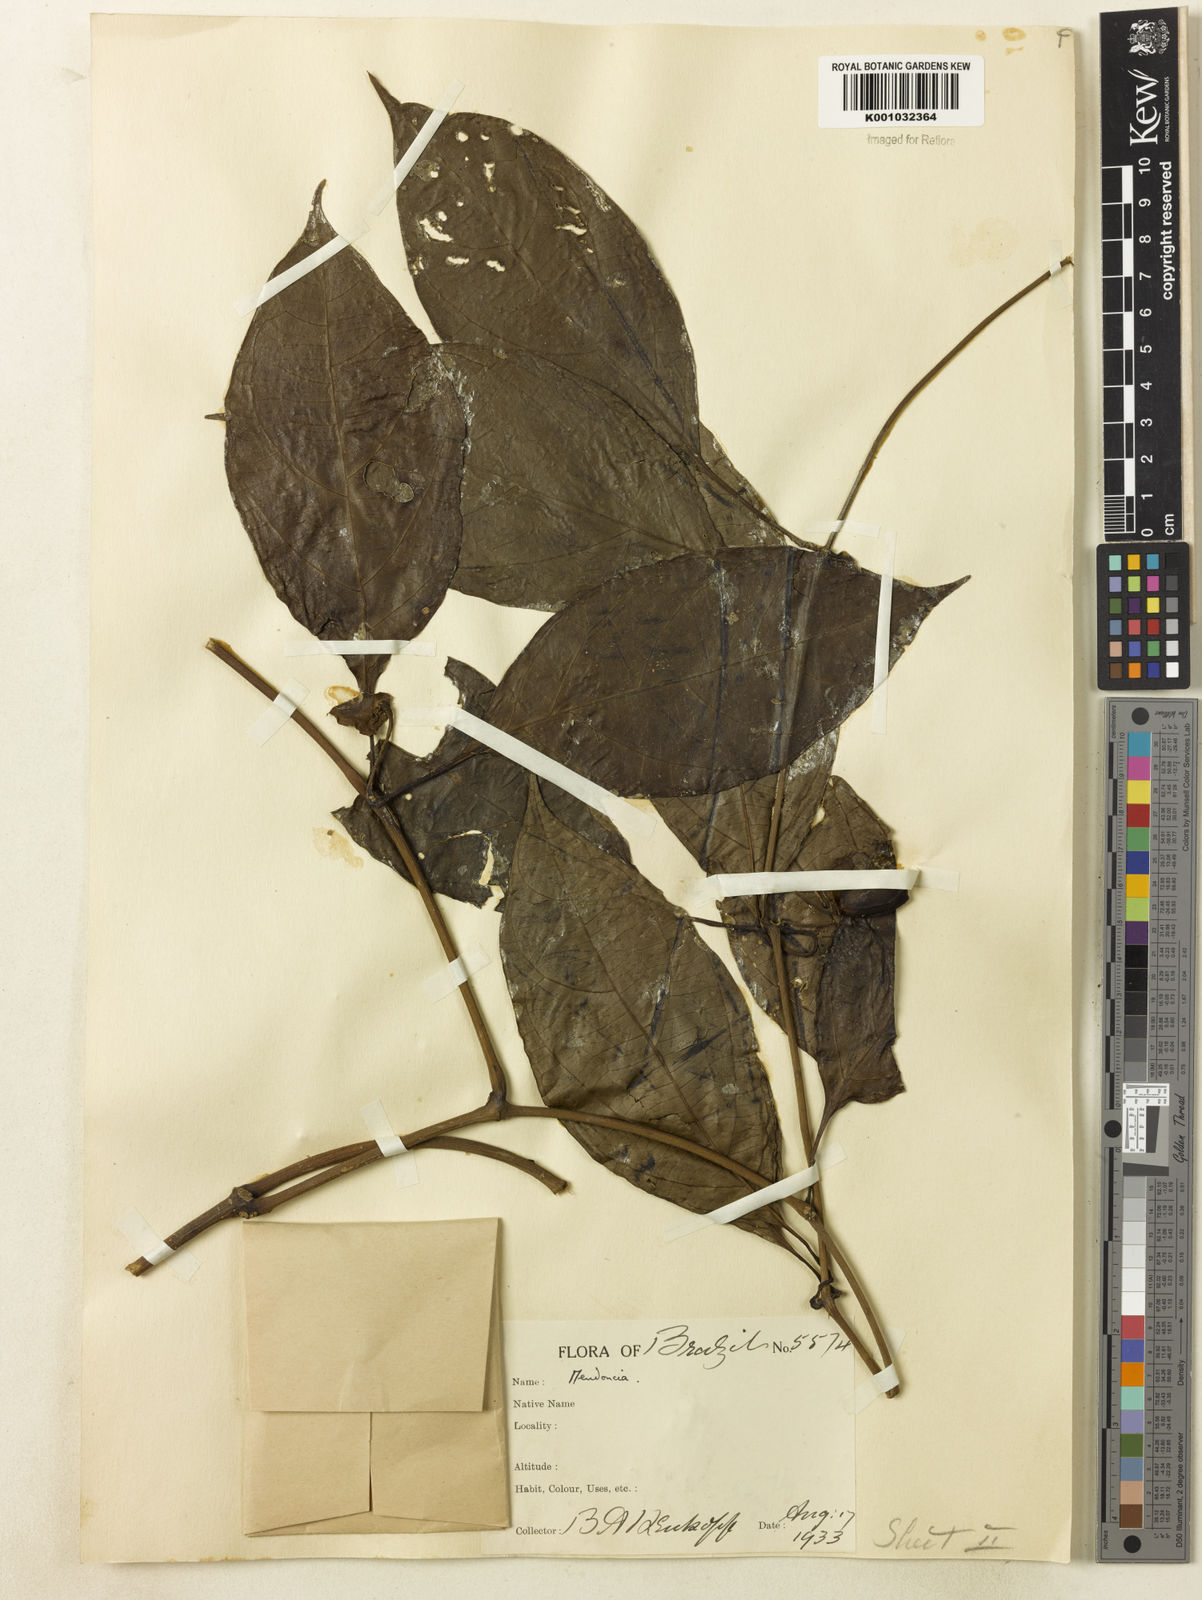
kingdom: Plantae
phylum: Tracheophyta
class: Magnoliopsida
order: Lamiales
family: Acanthaceae
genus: Mendoncia
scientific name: Mendoncia
